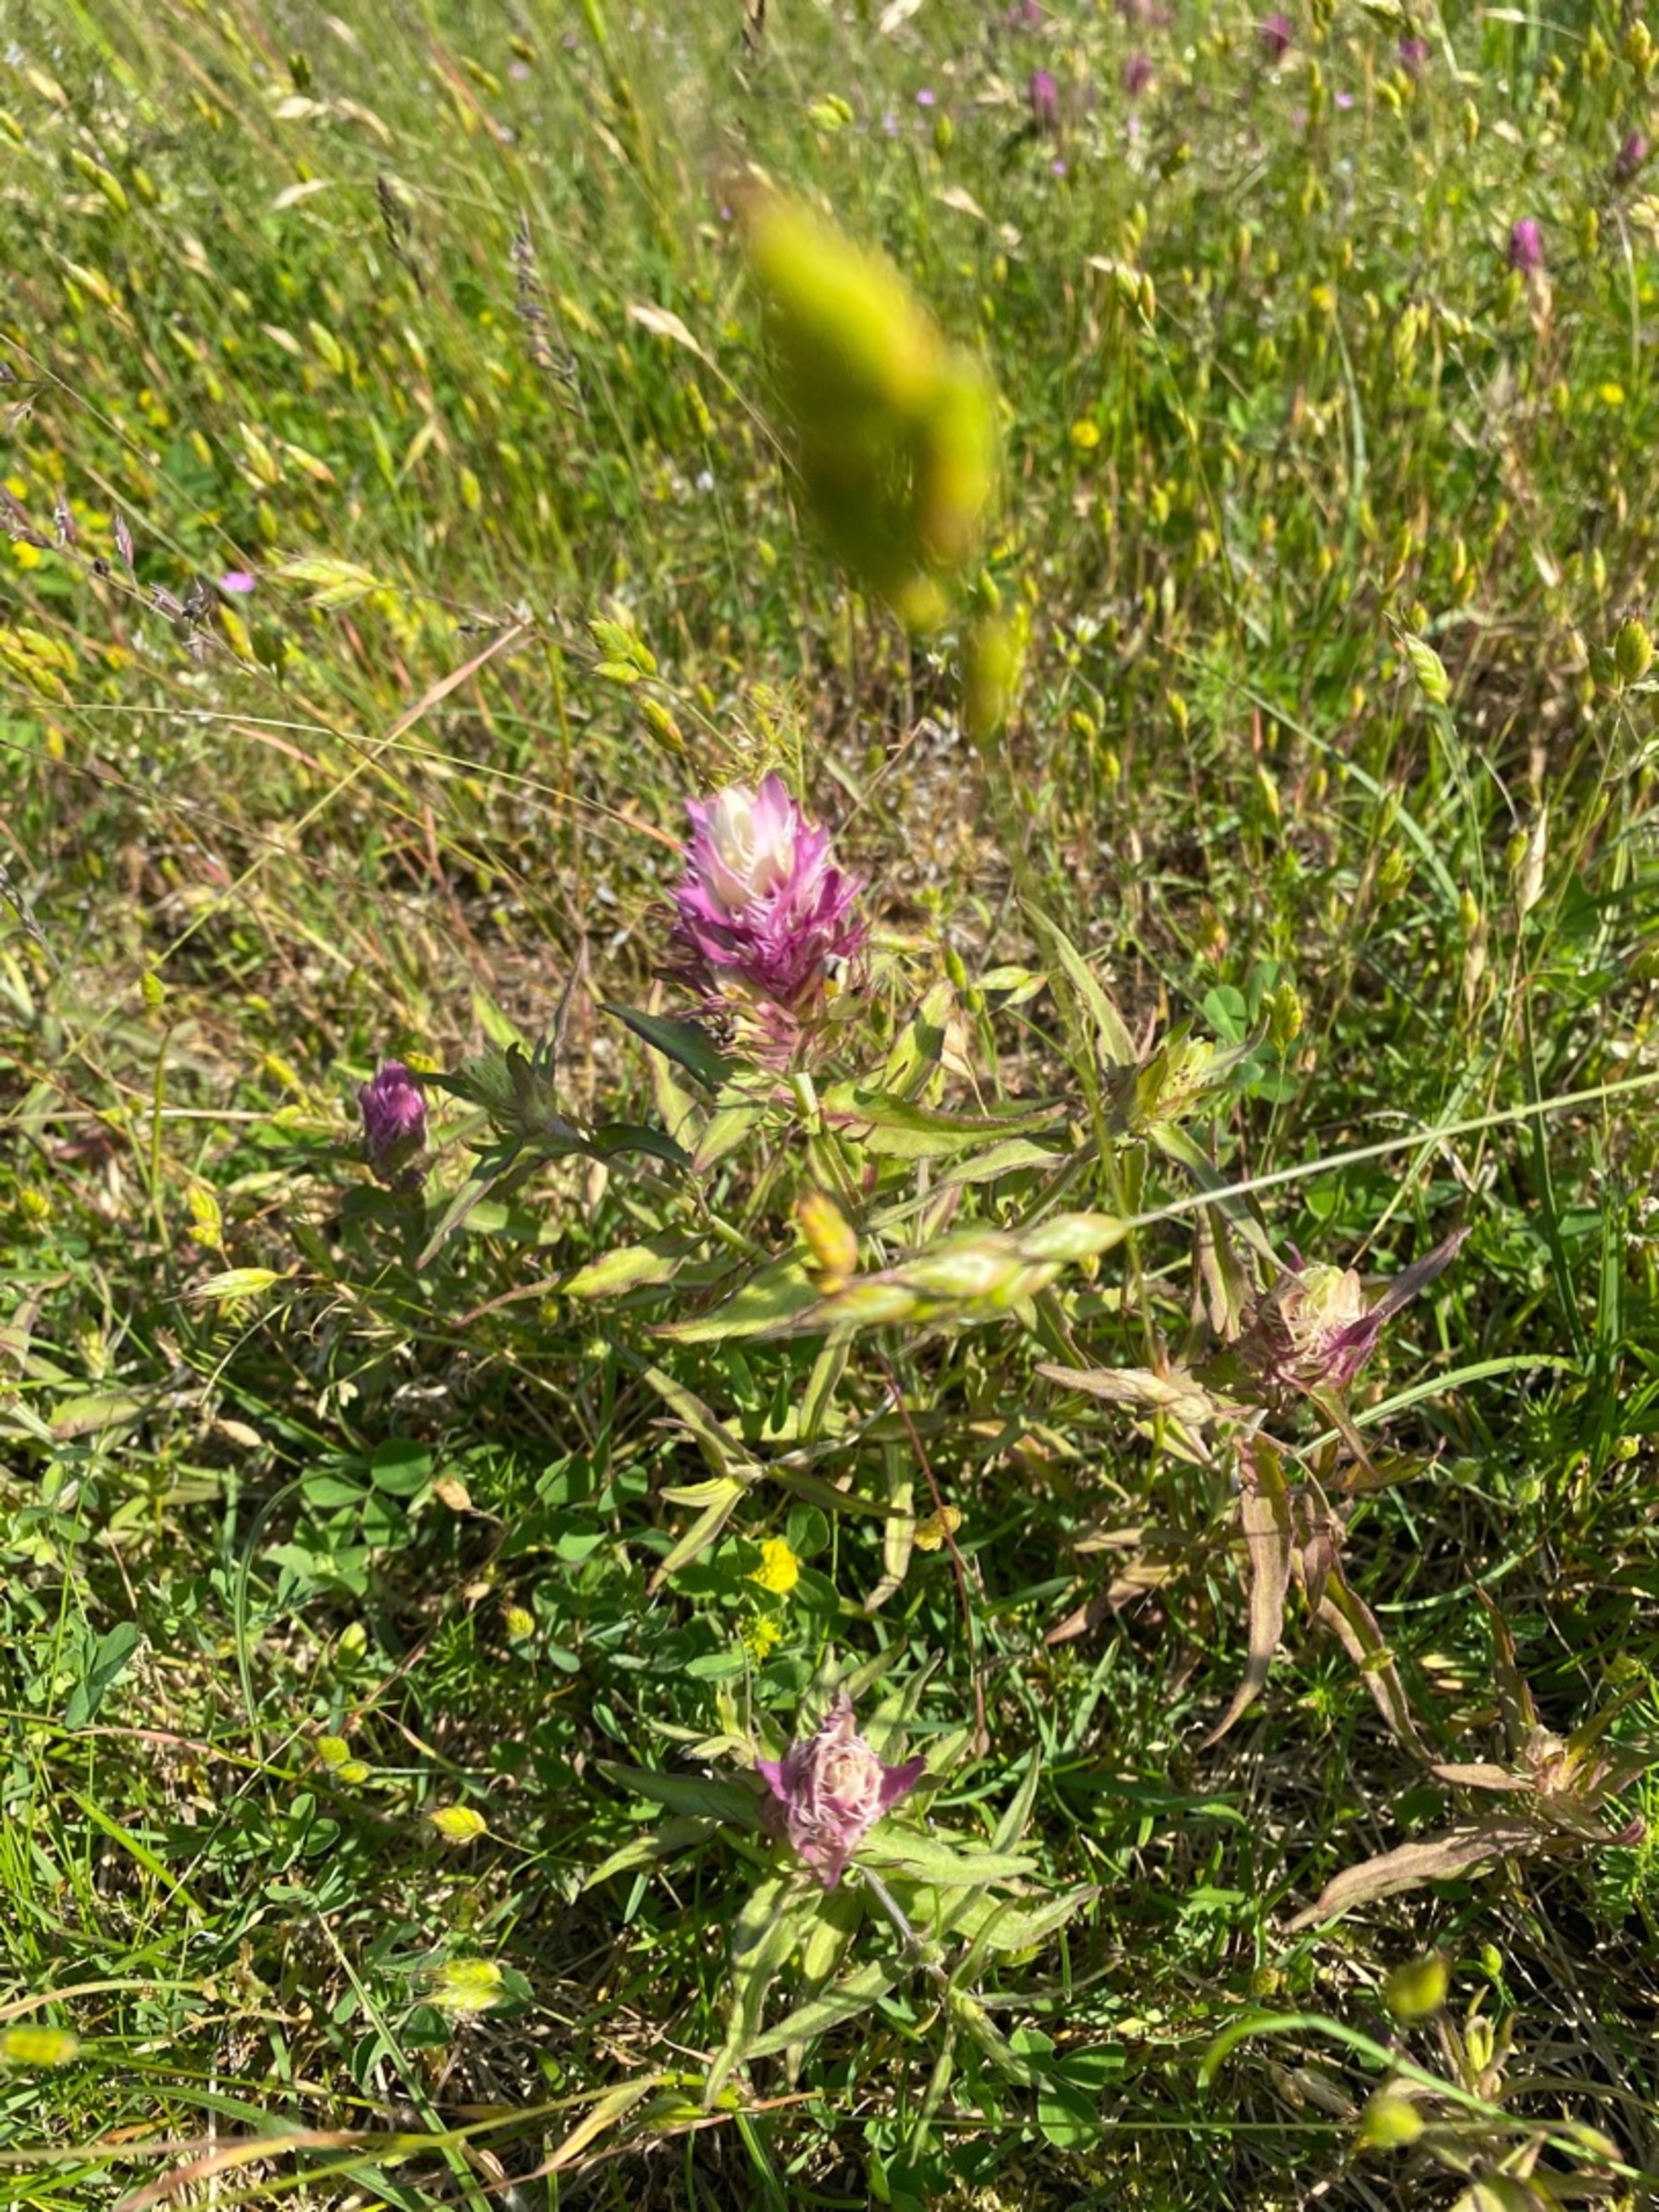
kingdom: Plantae
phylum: Tracheophyta
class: Magnoliopsida
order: Lamiales
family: Orobanchaceae
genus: Melampyrum
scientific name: Melampyrum arvense
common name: Ager-kohvede
